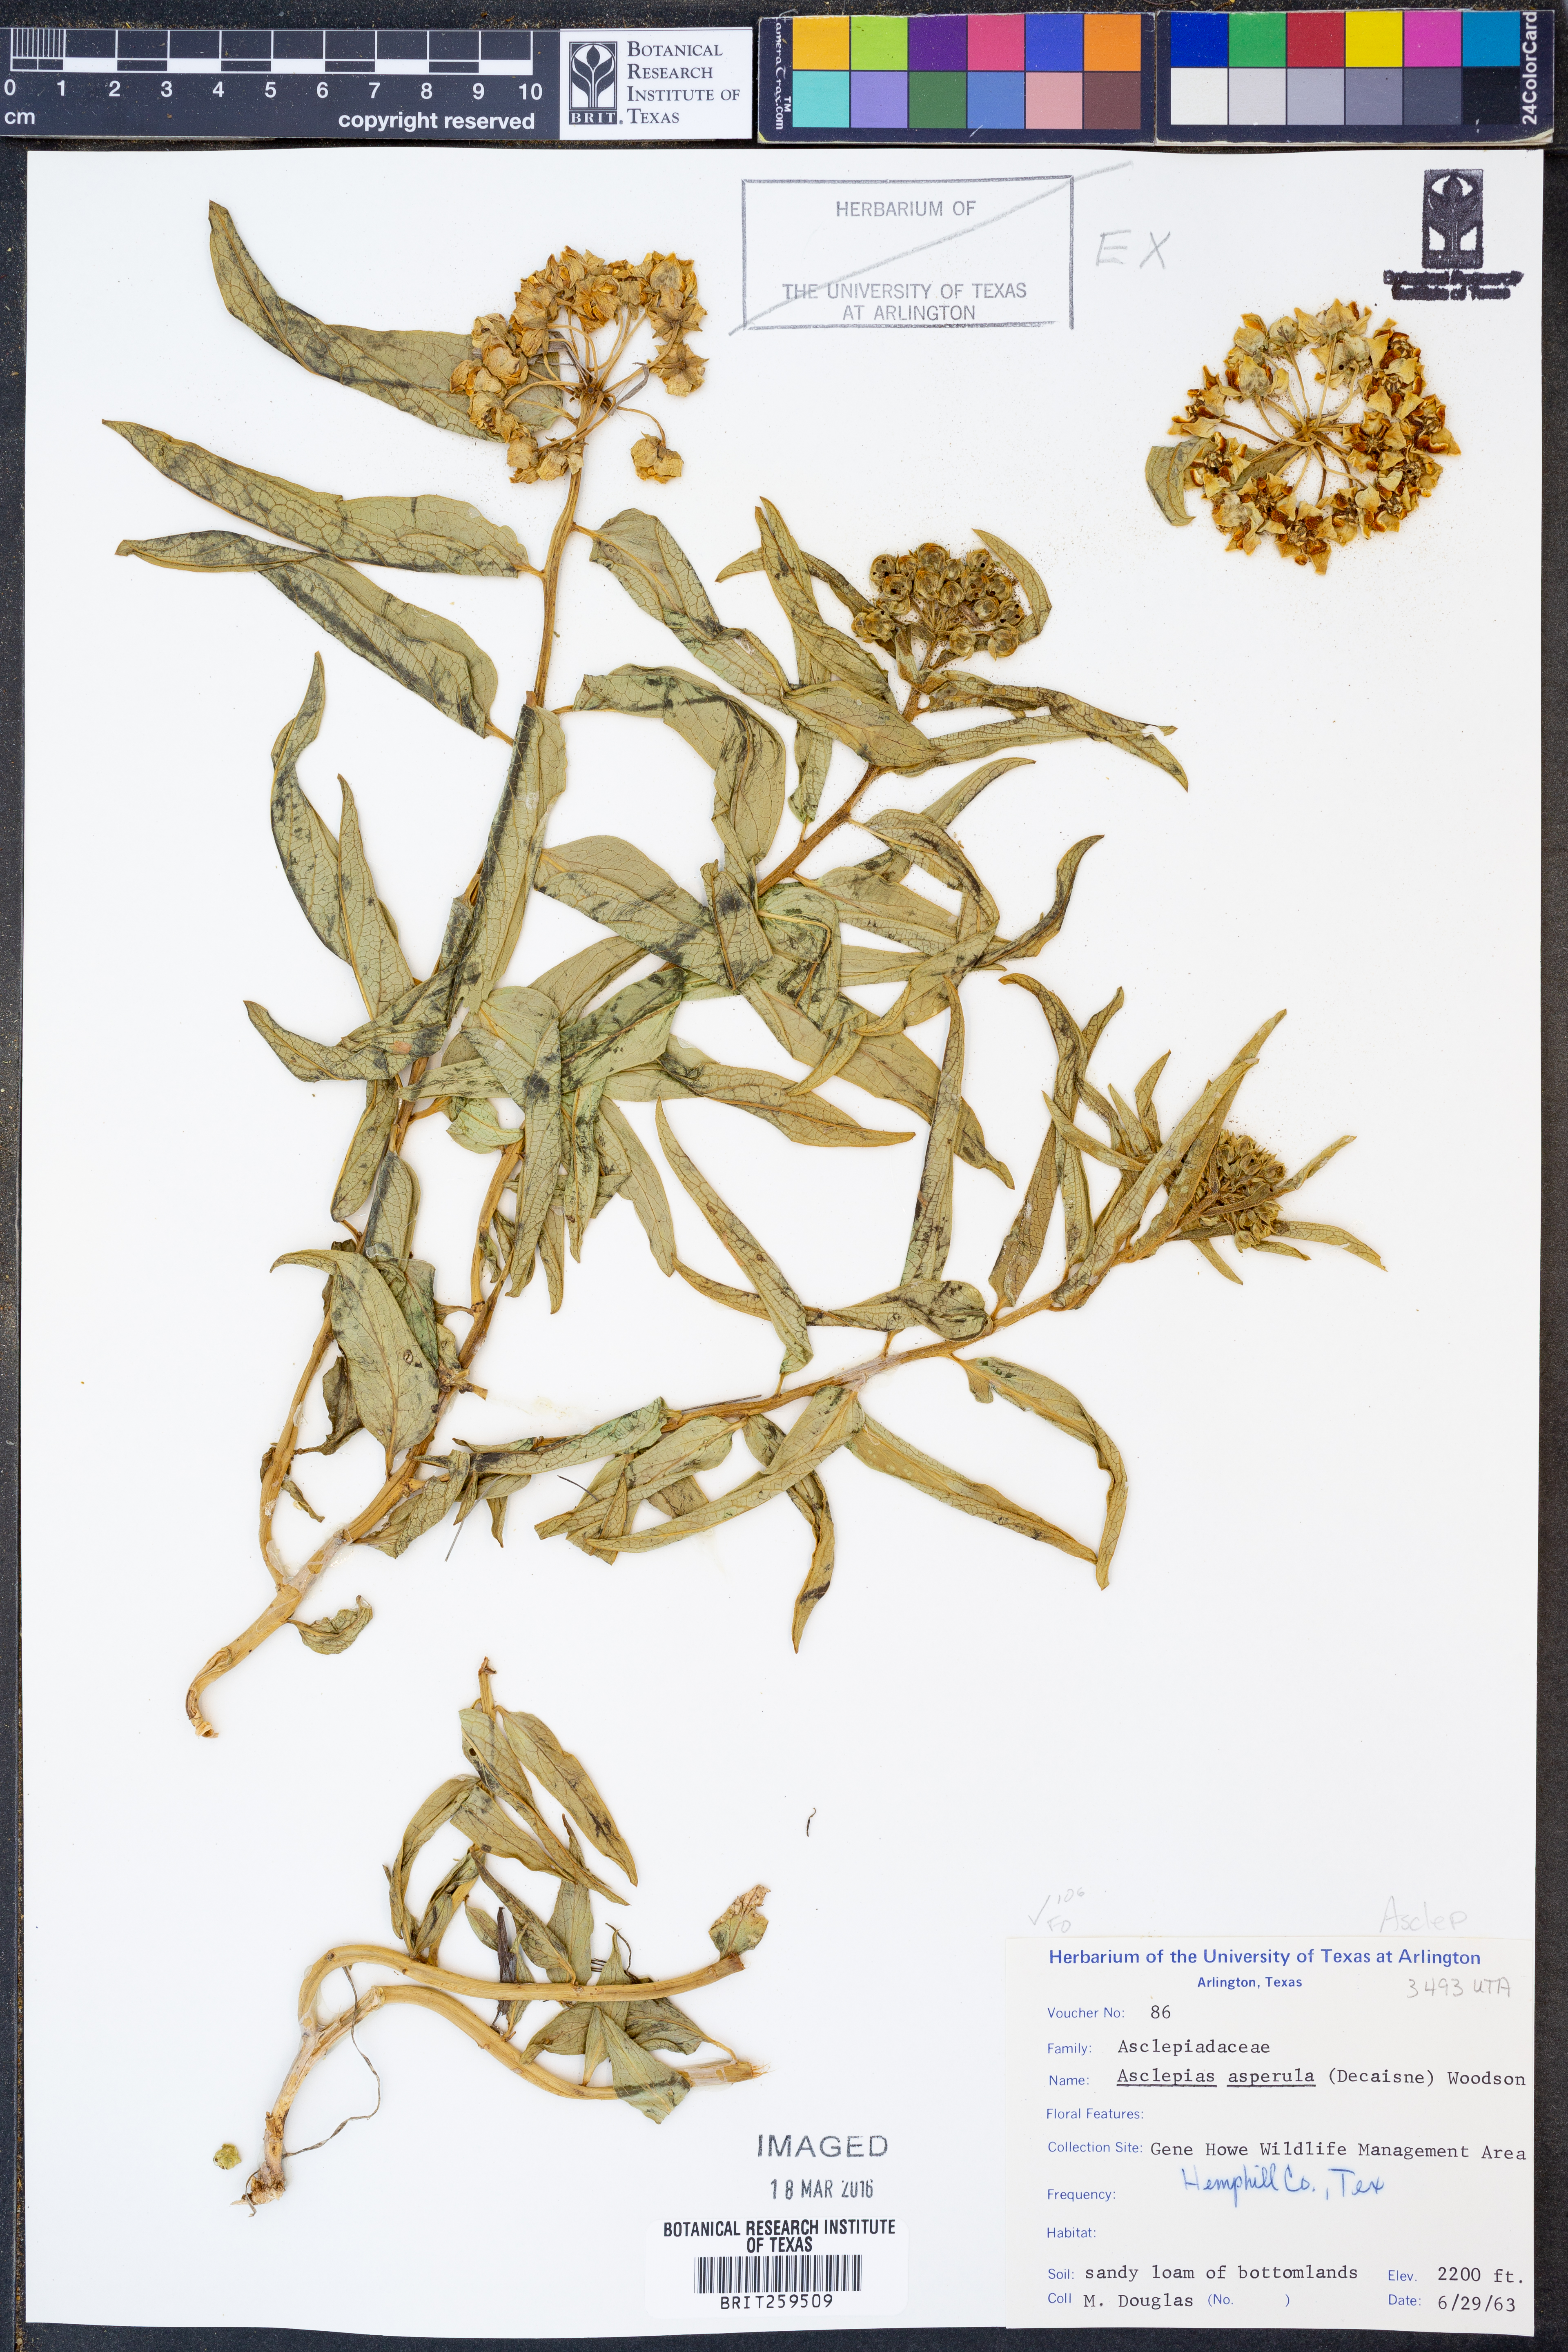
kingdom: Plantae
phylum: Tracheophyta
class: Magnoliopsida
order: Gentianales
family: Apocynaceae
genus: Asclepias
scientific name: Asclepias asperula
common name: Antelope horns
